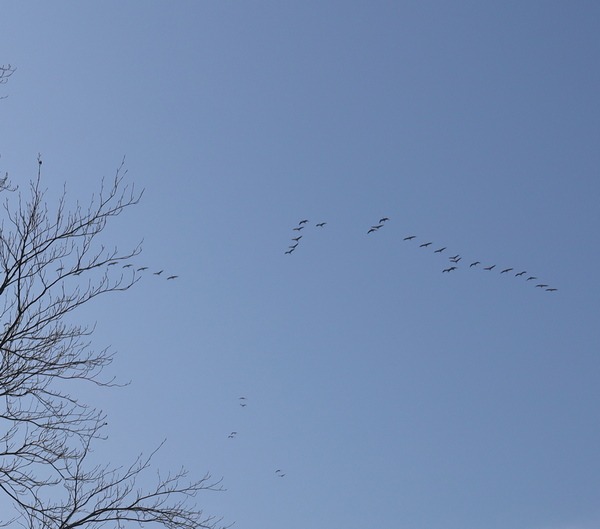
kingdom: Animalia
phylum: Chordata
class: Aves
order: Gruiformes
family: Gruidae
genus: Grus
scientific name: Grus grus
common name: Trane
